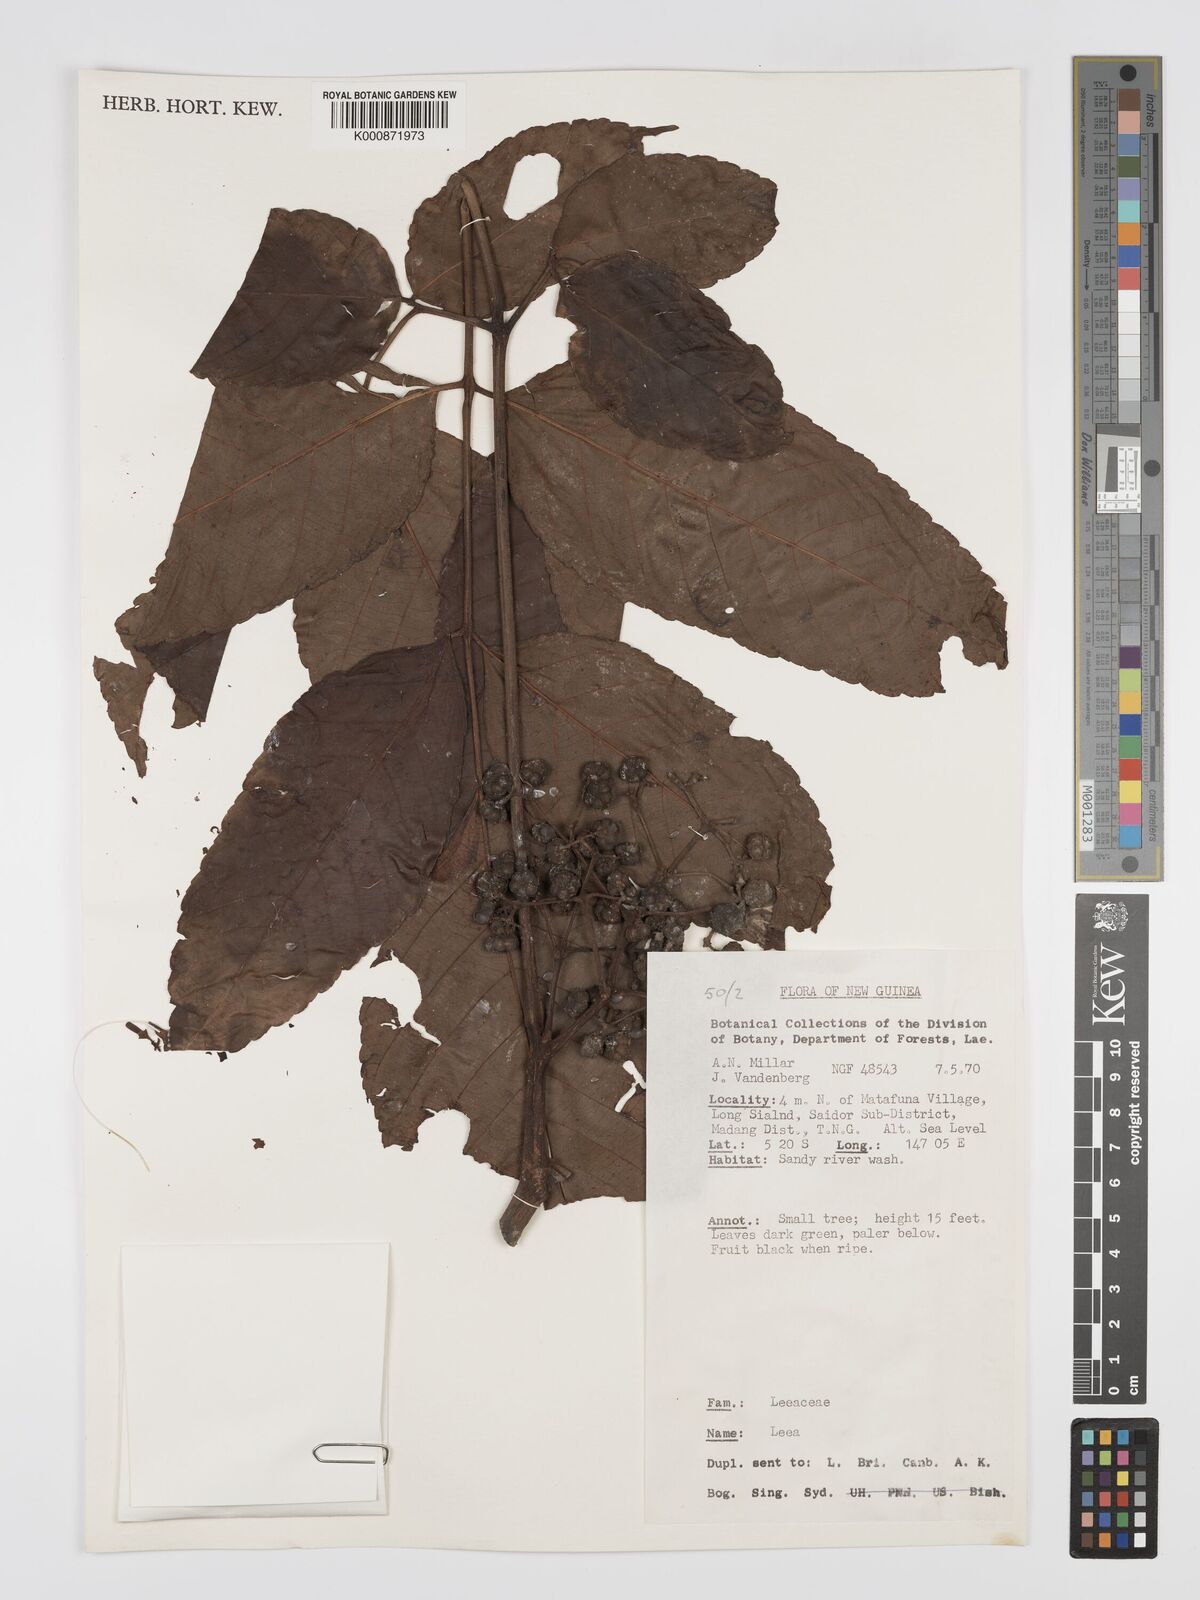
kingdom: Plantae
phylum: Tracheophyta
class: Magnoliopsida
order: Vitales
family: Vitaceae
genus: Leea
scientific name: Leea
